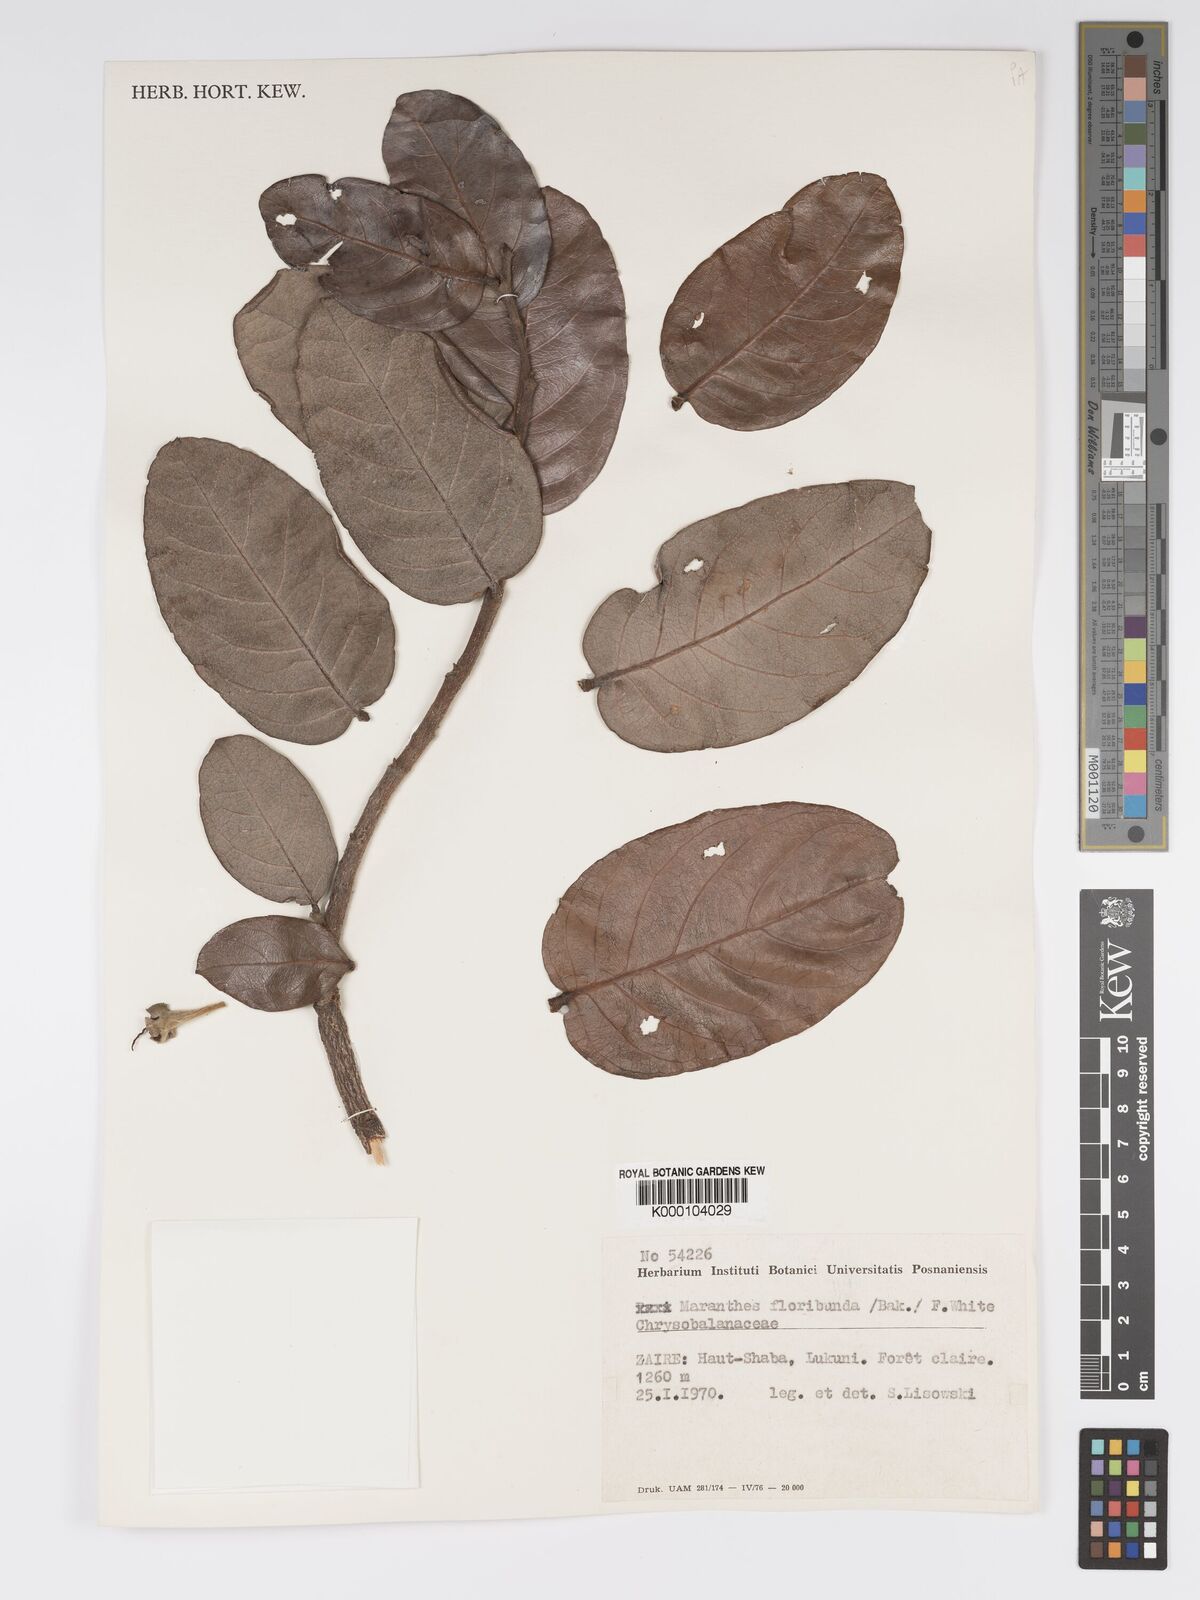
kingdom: Plantae
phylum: Tracheophyta
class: Magnoliopsida
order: Malpighiales
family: Chrysobalanaceae
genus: Maranthes
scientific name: Maranthes floribunda
